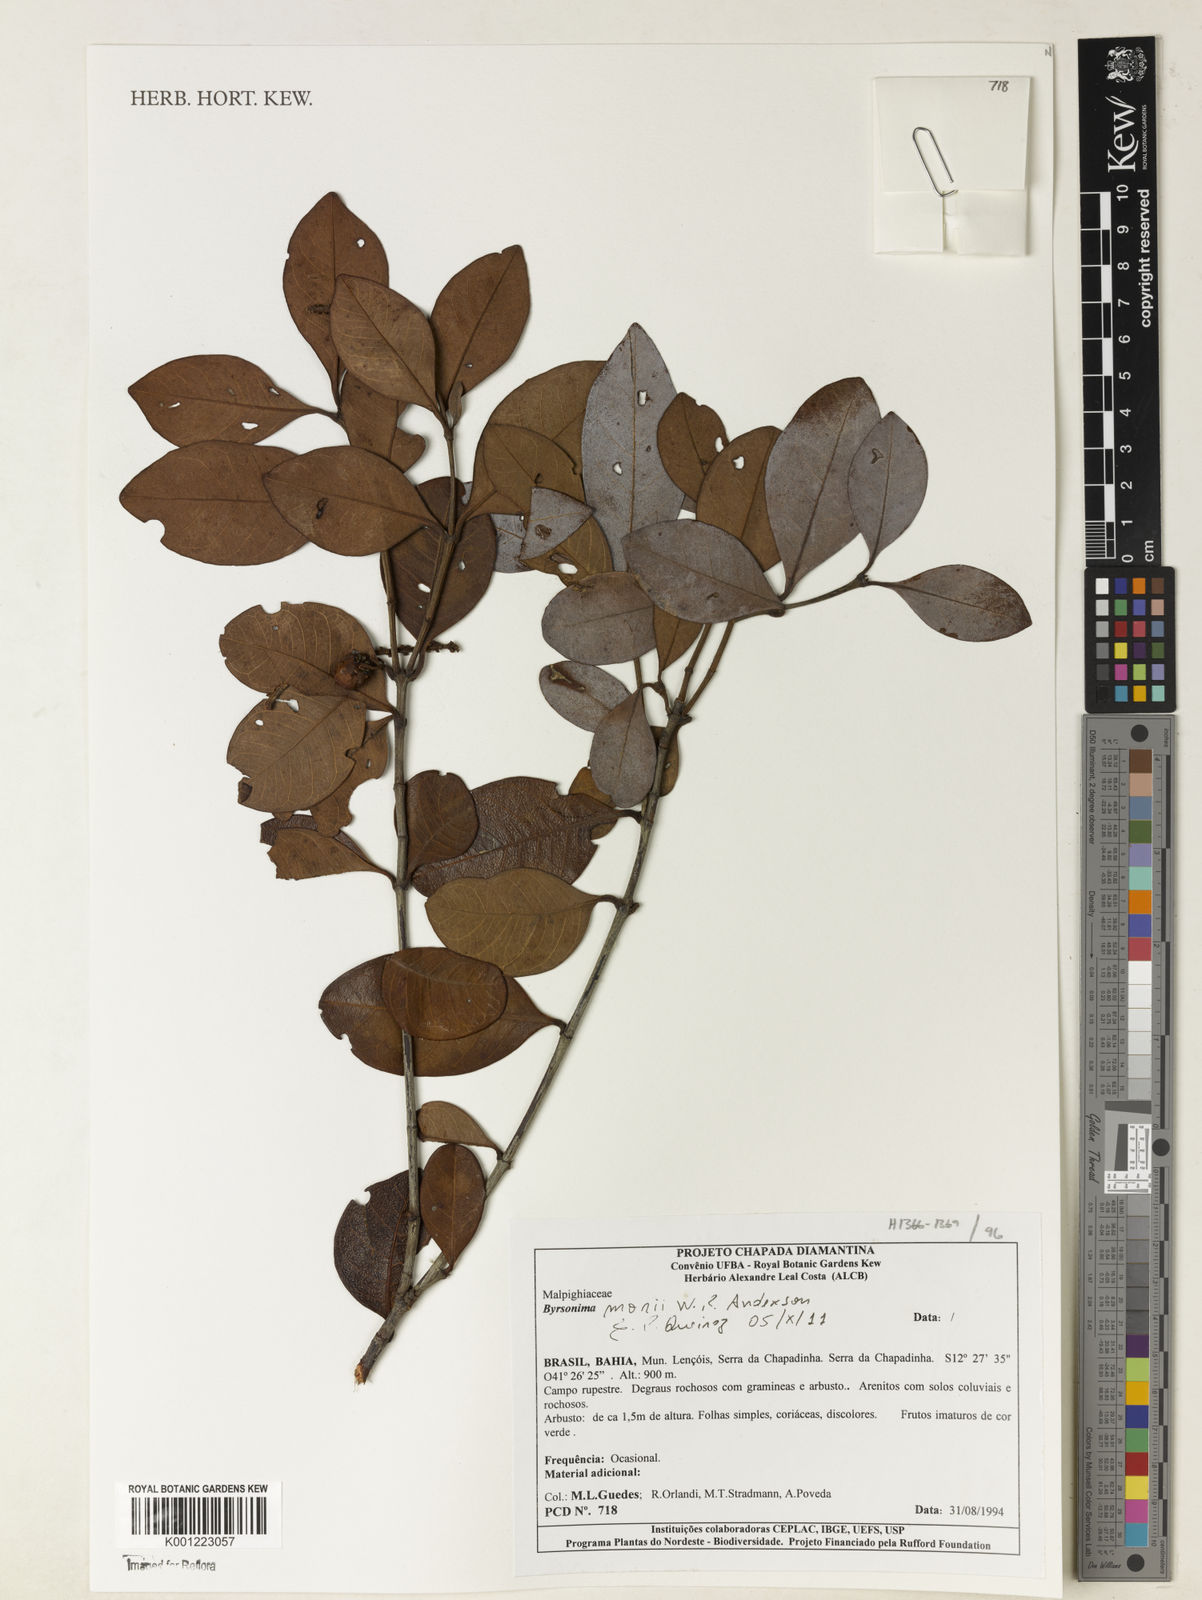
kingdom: Plantae
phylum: Tracheophyta
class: Magnoliopsida
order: Malpighiales
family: Malpighiaceae
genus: Byrsonima
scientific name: Byrsonima morii
